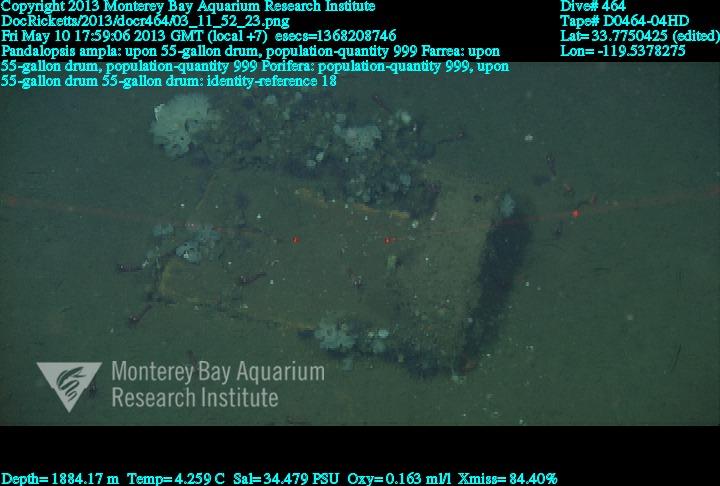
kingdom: Animalia
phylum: Porifera
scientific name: Porifera
